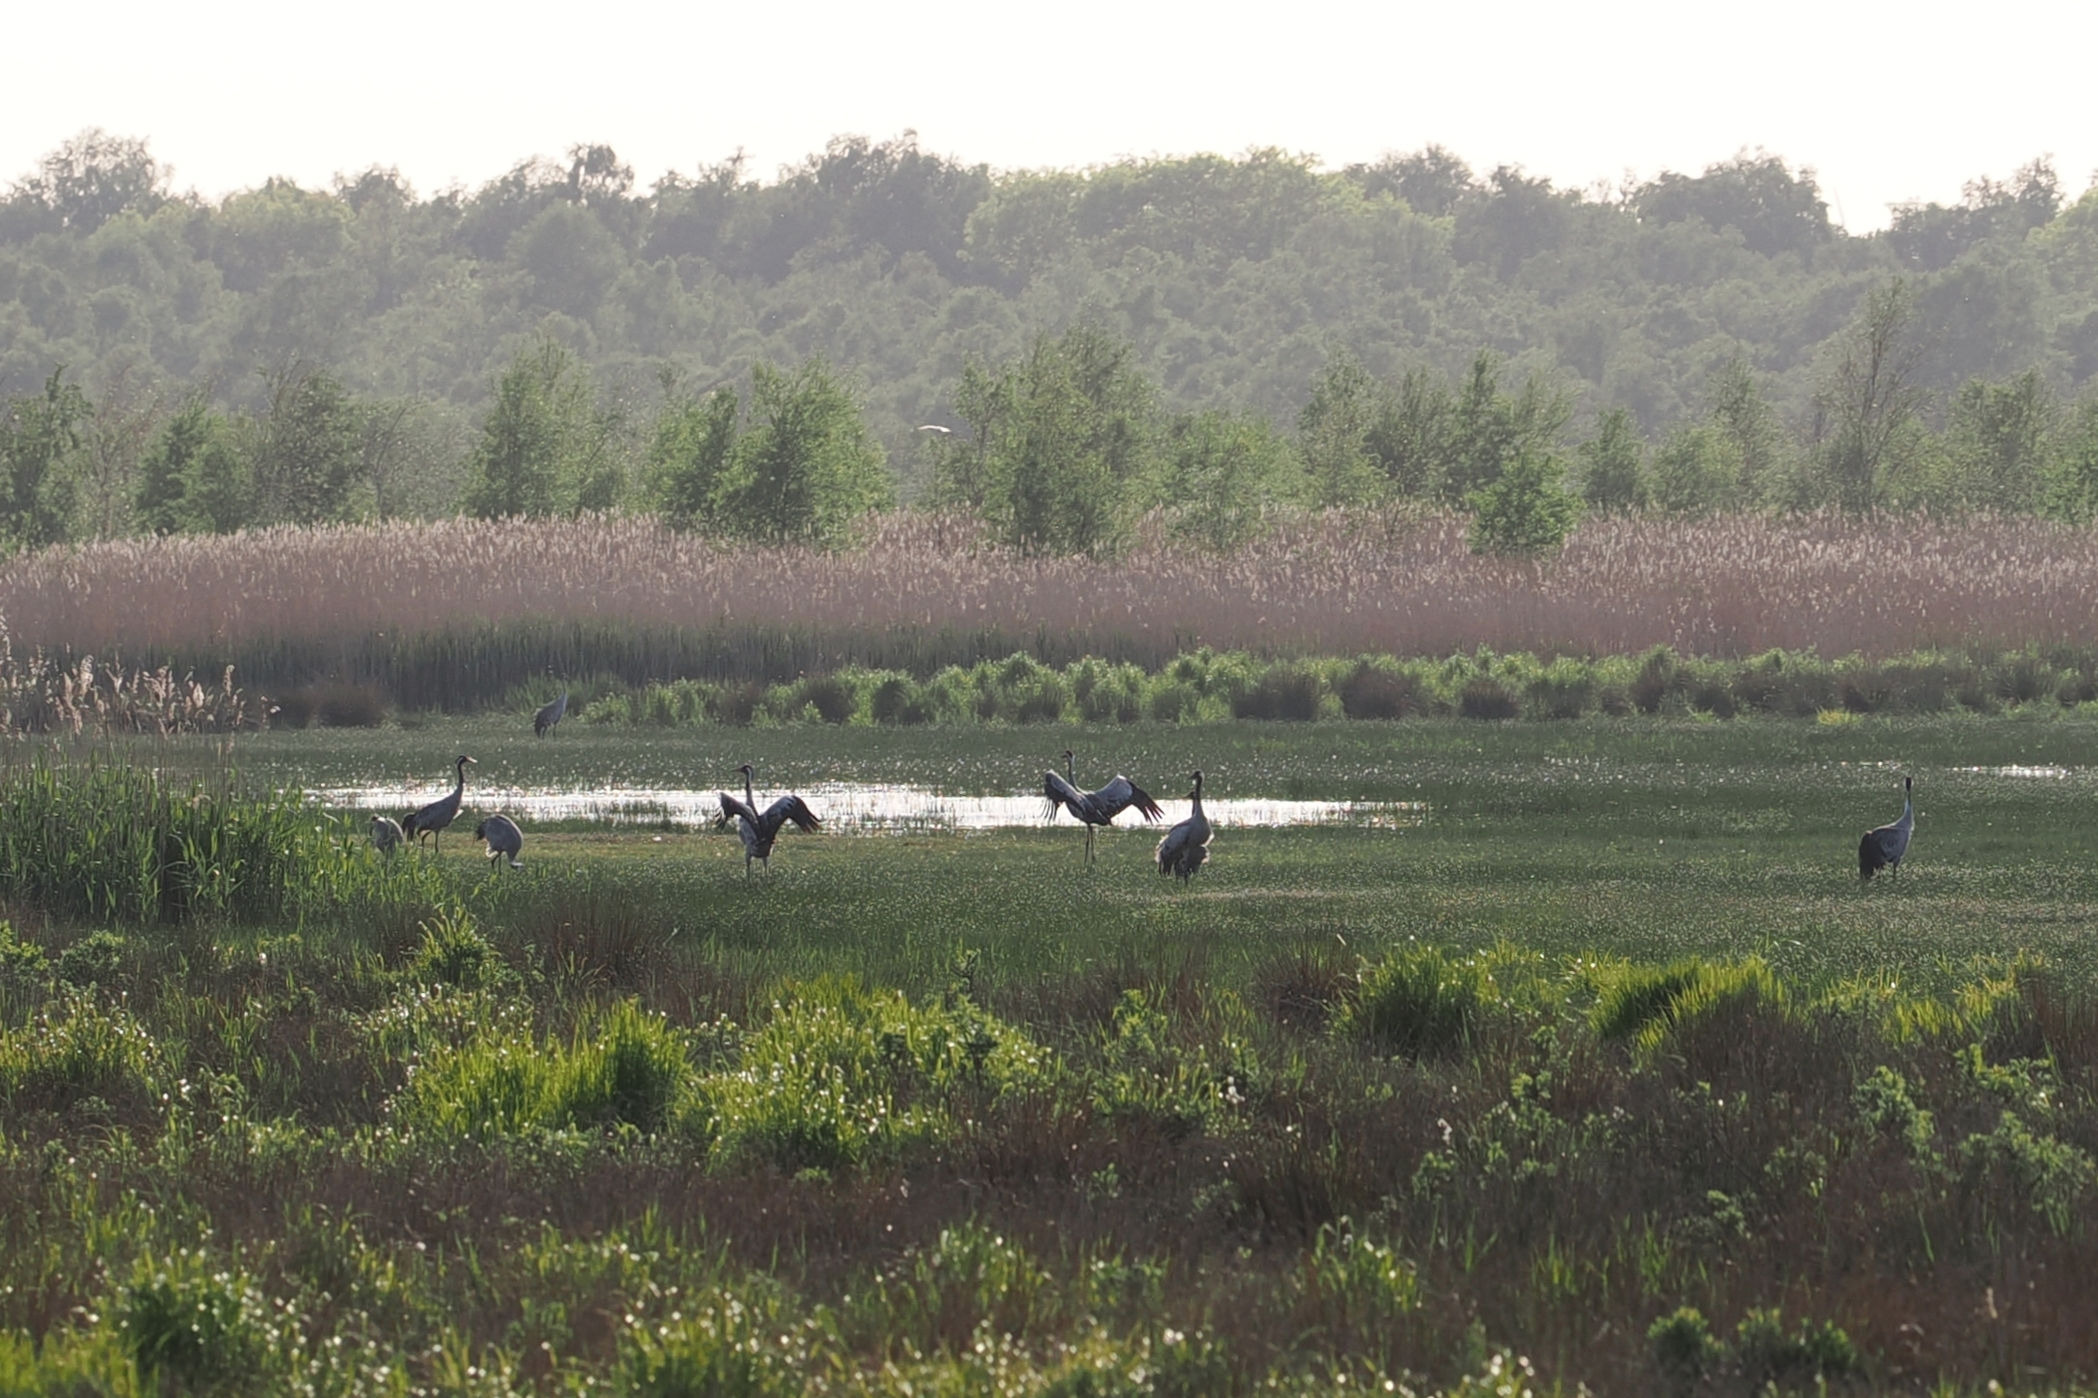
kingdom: Animalia
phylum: Chordata
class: Aves
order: Gruiformes
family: Gruidae
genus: Grus
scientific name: Grus grus
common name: Trane
